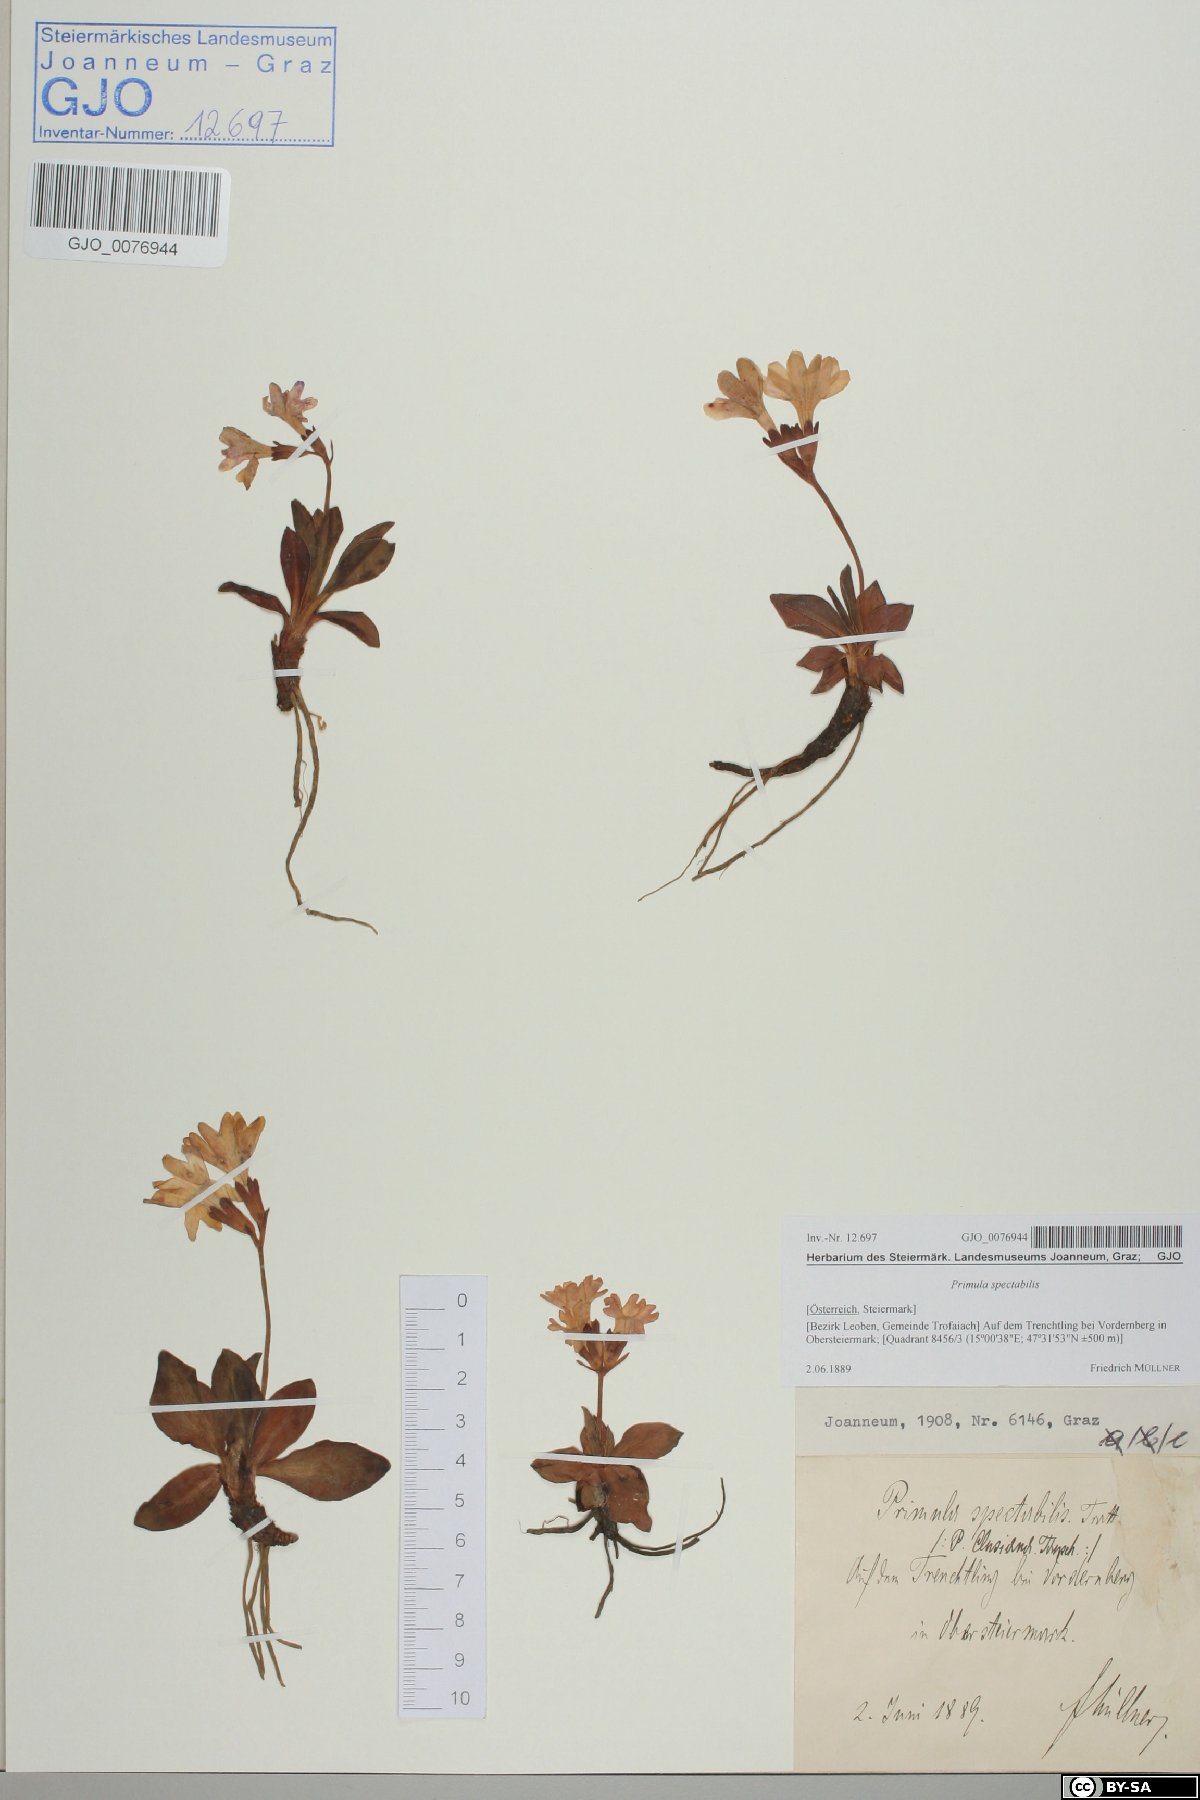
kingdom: Plantae
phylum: Tracheophyta
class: Magnoliopsida
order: Ericales
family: Primulaceae
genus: Primula
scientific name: Primula clusiana
